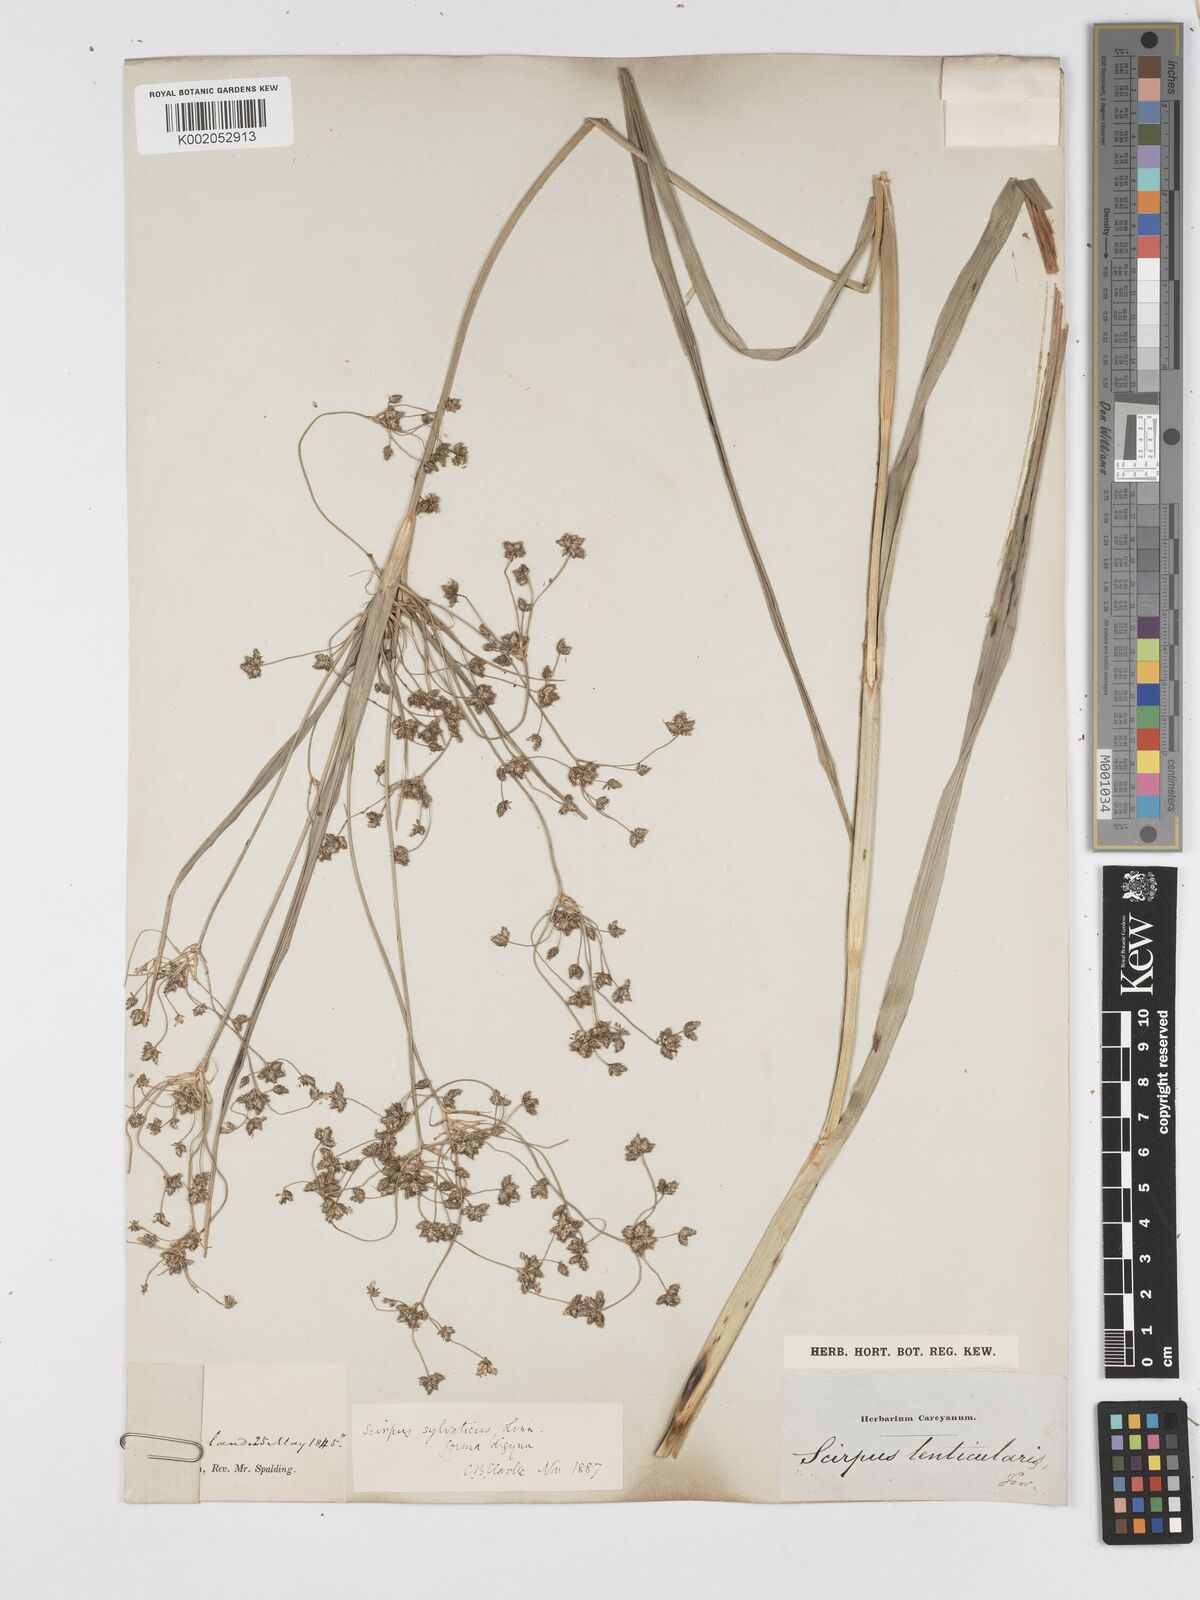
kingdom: Plantae
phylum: Tracheophyta
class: Liliopsida
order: Poales
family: Cyperaceae
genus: Scirpus
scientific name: Scirpus sylvaticus
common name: Wood club-rush
